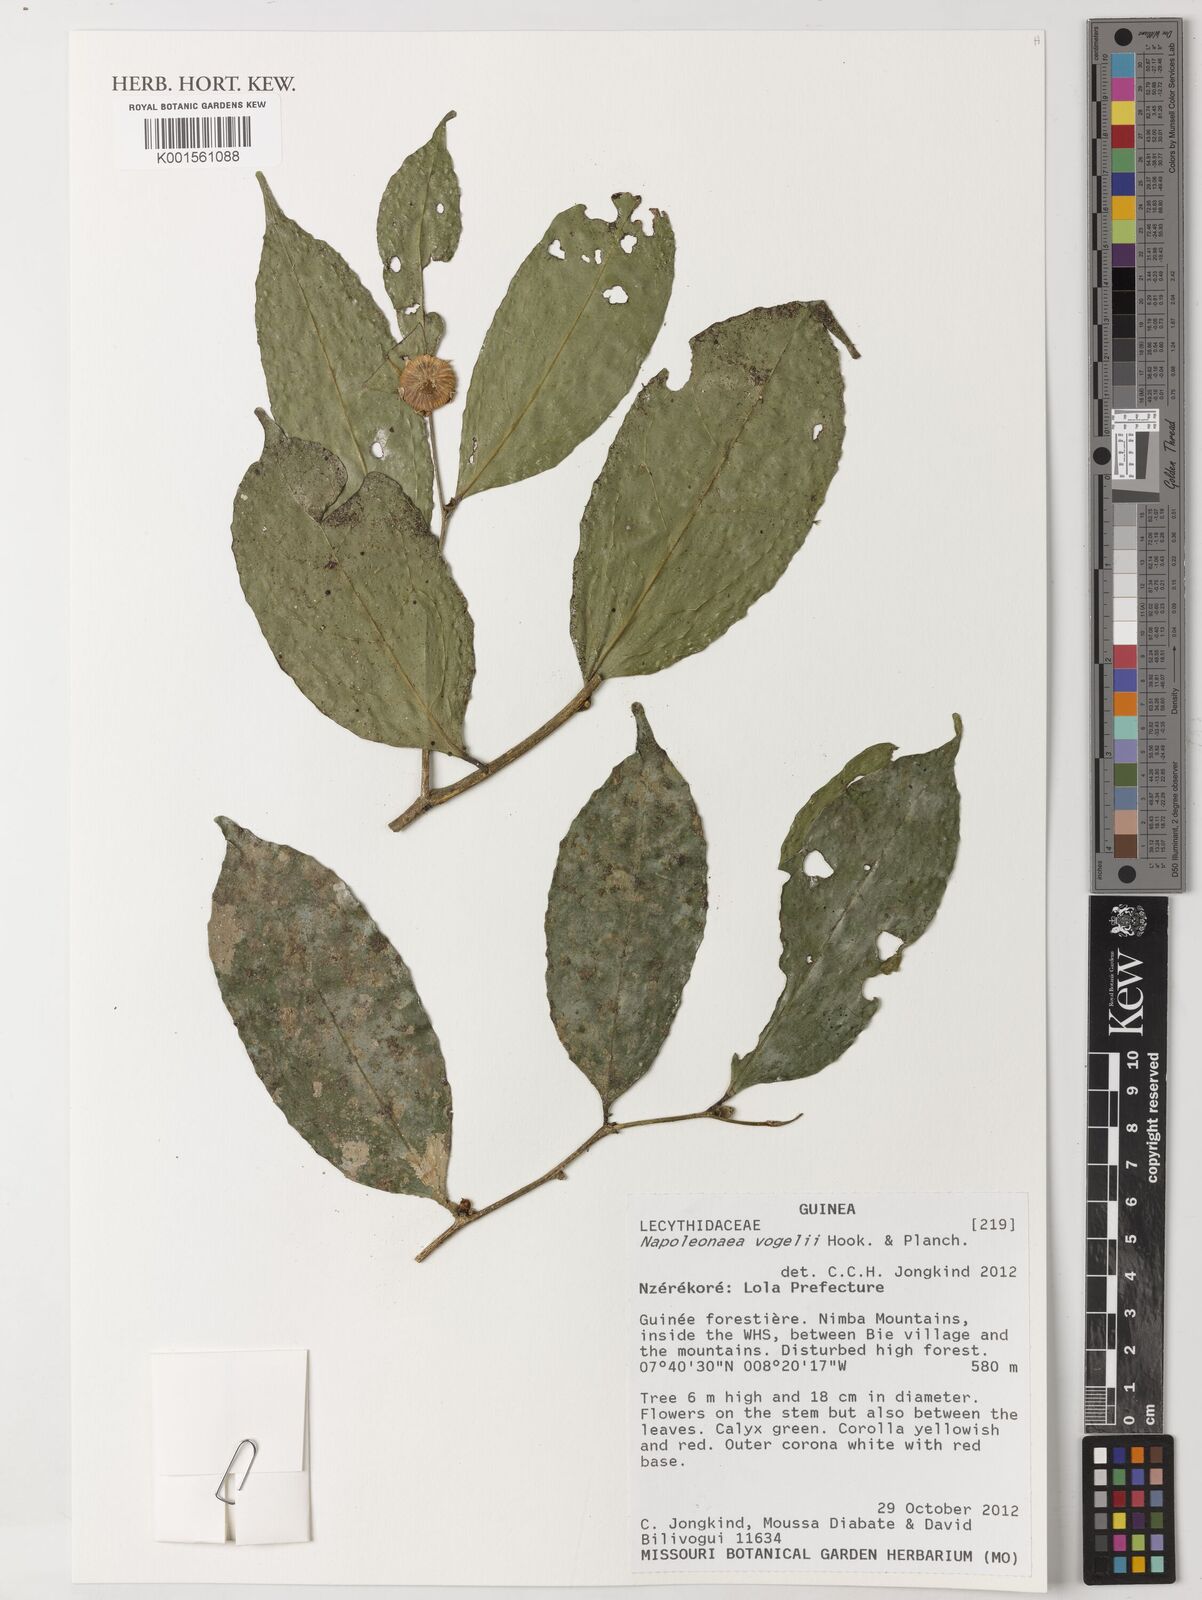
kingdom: Plantae
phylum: Tracheophyta
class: Magnoliopsida
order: Ericales
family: Lecythidaceae
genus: Napoleonaea
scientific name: Napoleonaea vogelii
